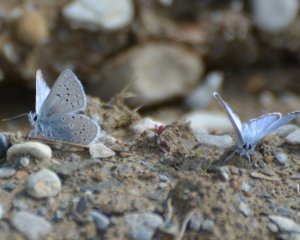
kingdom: Animalia
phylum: Arthropoda
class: Insecta
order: Lepidoptera
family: Lycaenidae
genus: Plebejus
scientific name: Plebejus saepiolus
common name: Greenish Blue
